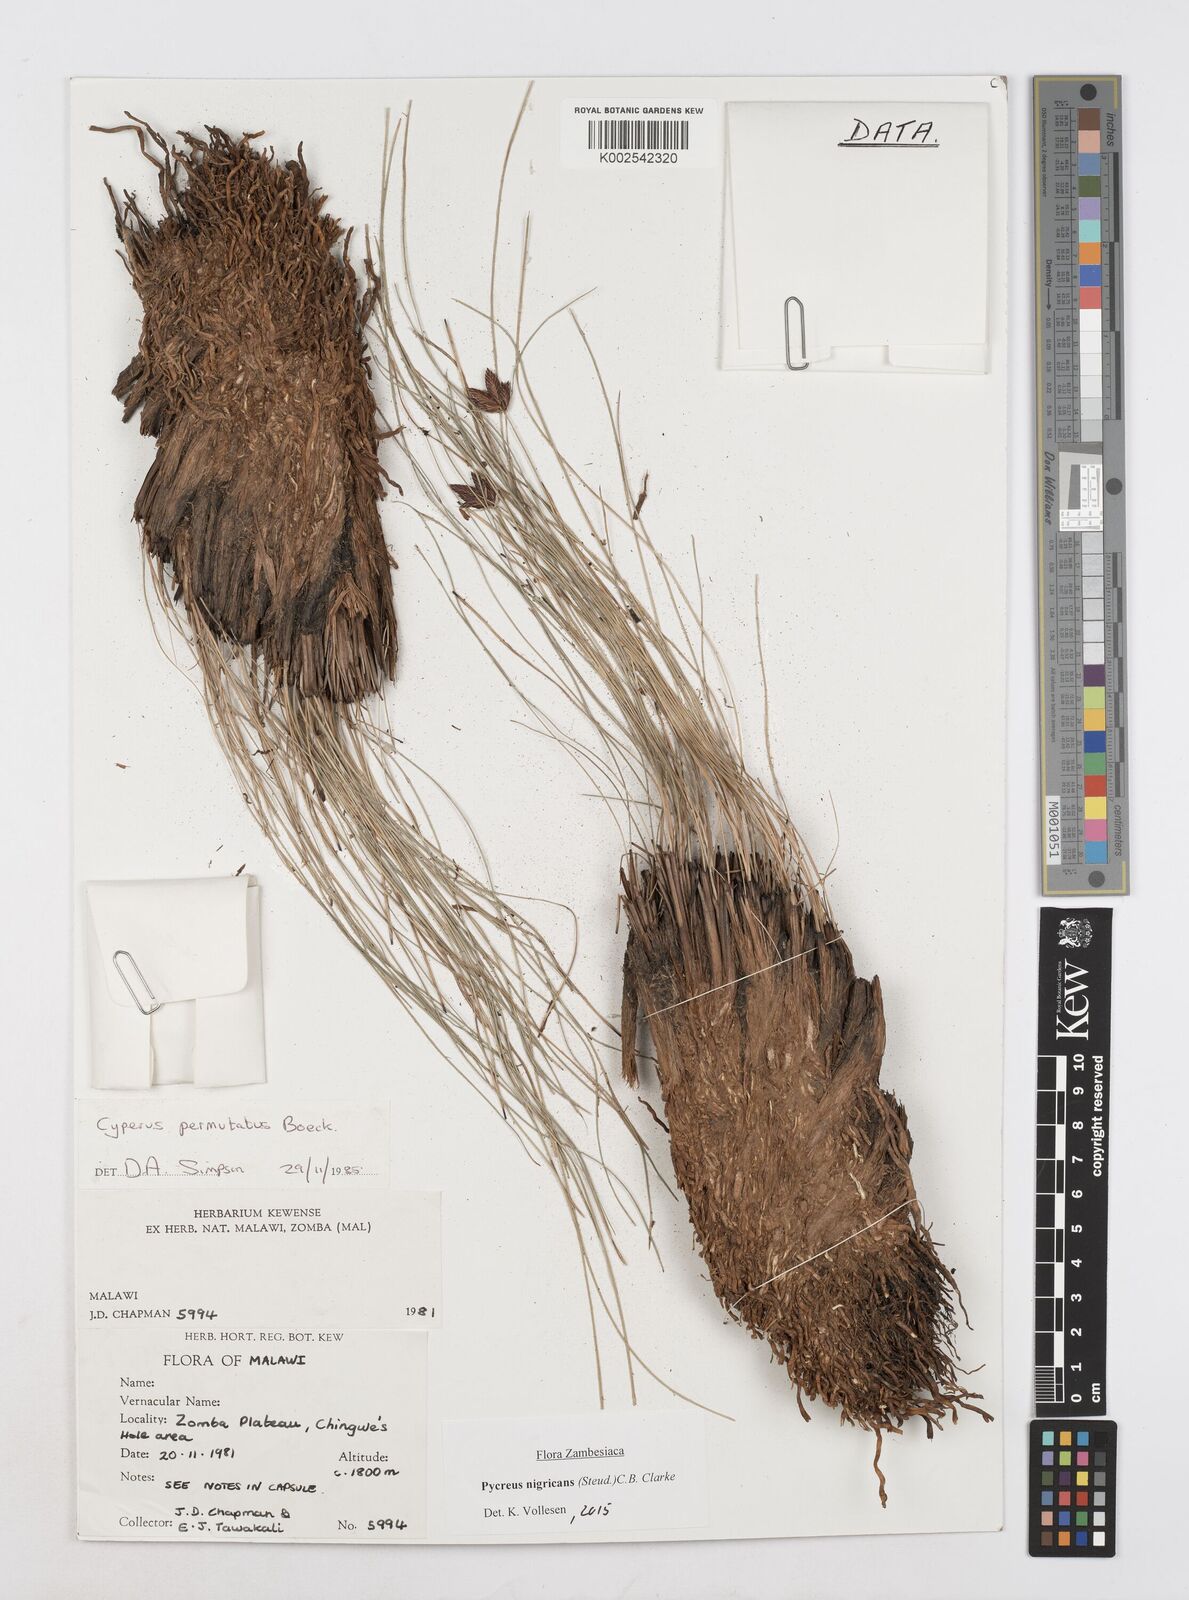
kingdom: Plantae
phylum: Tracheophyta
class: Liliopsida
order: Poales
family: Cyperaceae
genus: Cyperus
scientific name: Cyperus nigricans
